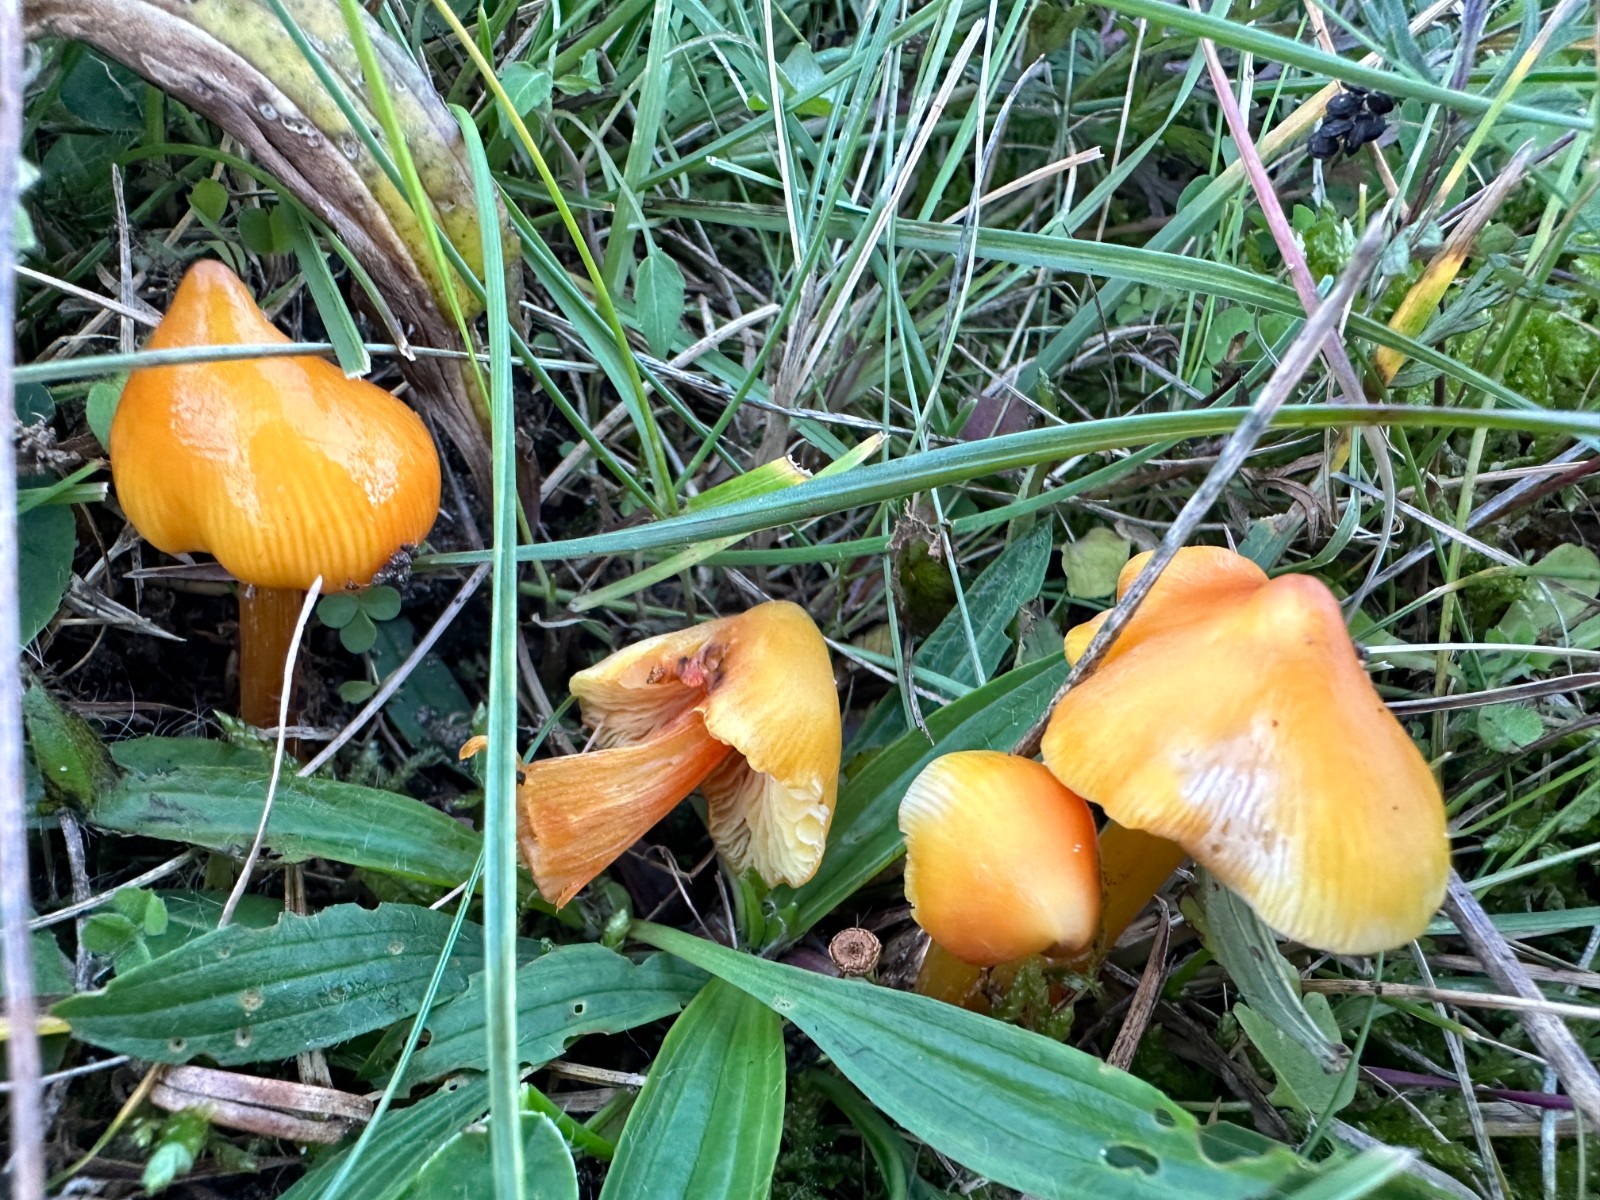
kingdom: Fungi
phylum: Basidiomycota
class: Agaricomycetes
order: Agaricales
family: Hygrophoraceae
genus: Hygrocybe
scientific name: Hygrocybe acutoconica
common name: spidspuklet vokshat
